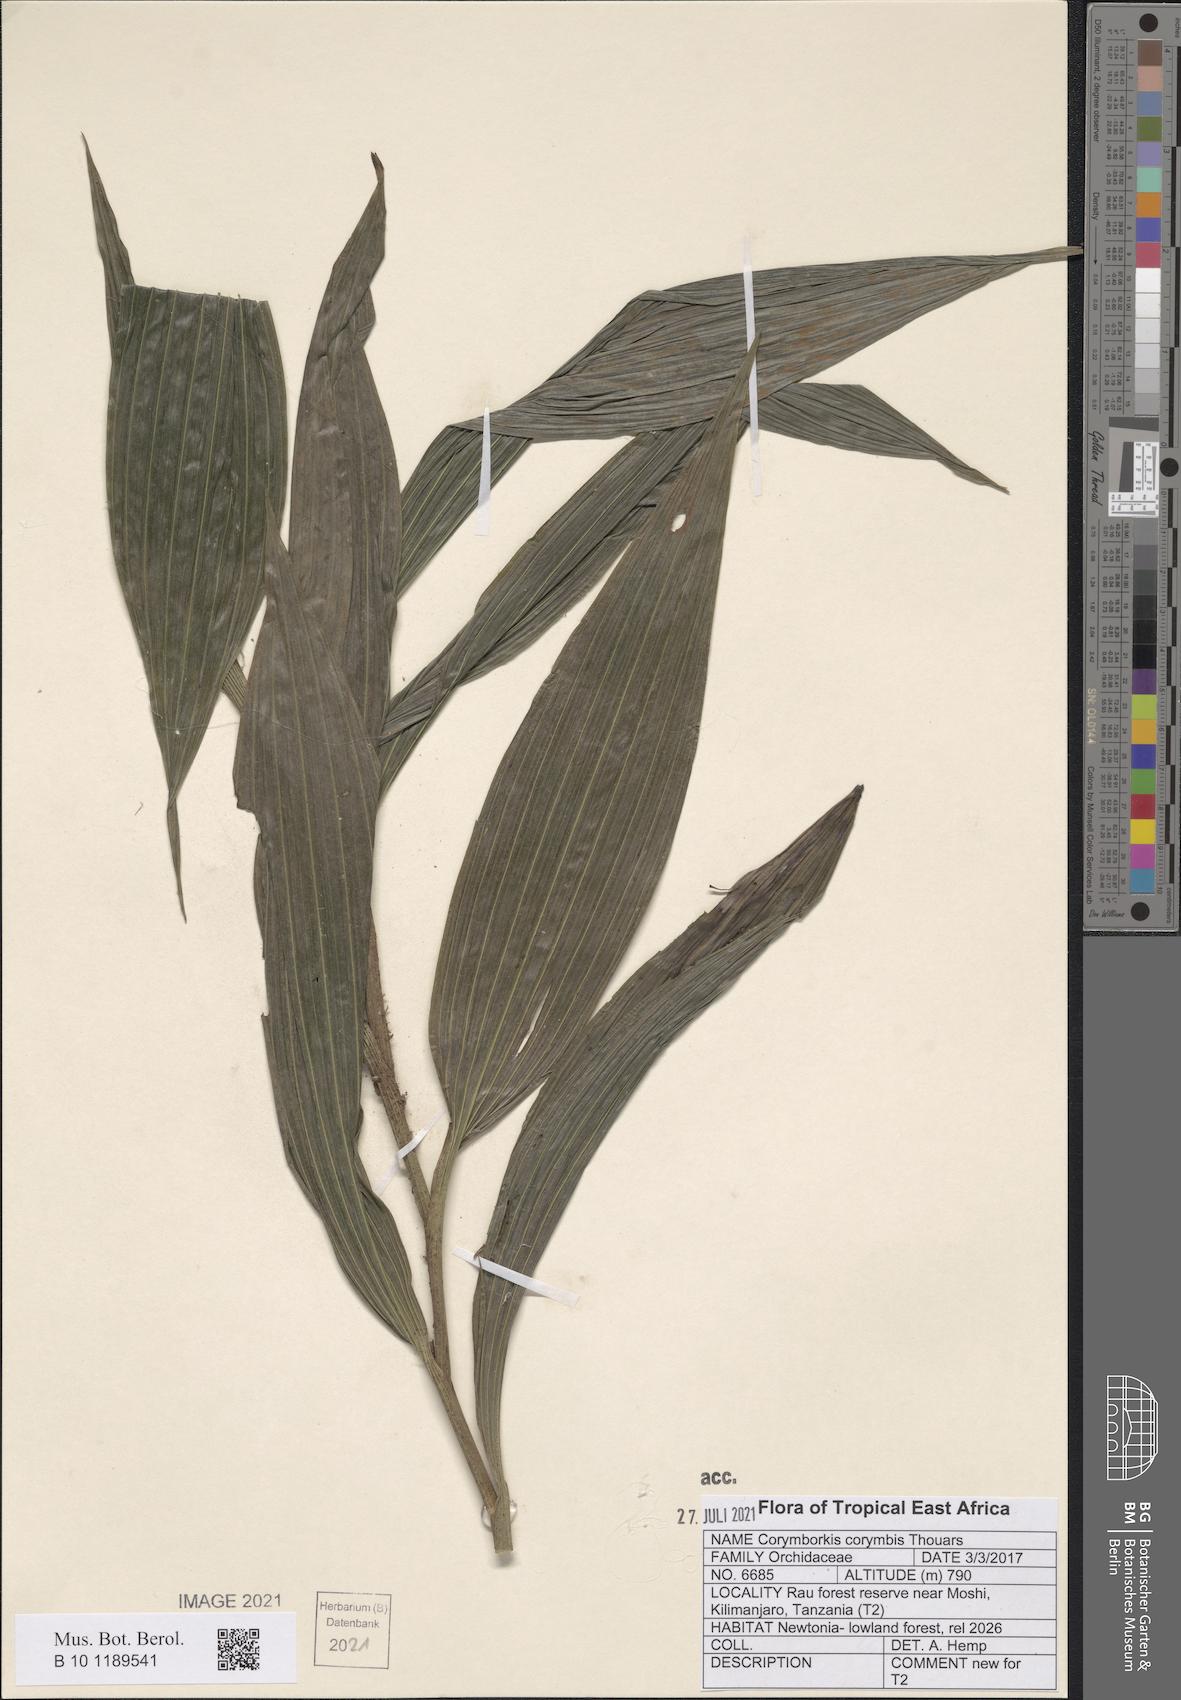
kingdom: Plantae
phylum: Tracheophyta
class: Liliopsida
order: Asparagales
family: Orchidaceae
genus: Corymborkis
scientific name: Corymborkis corymbis
